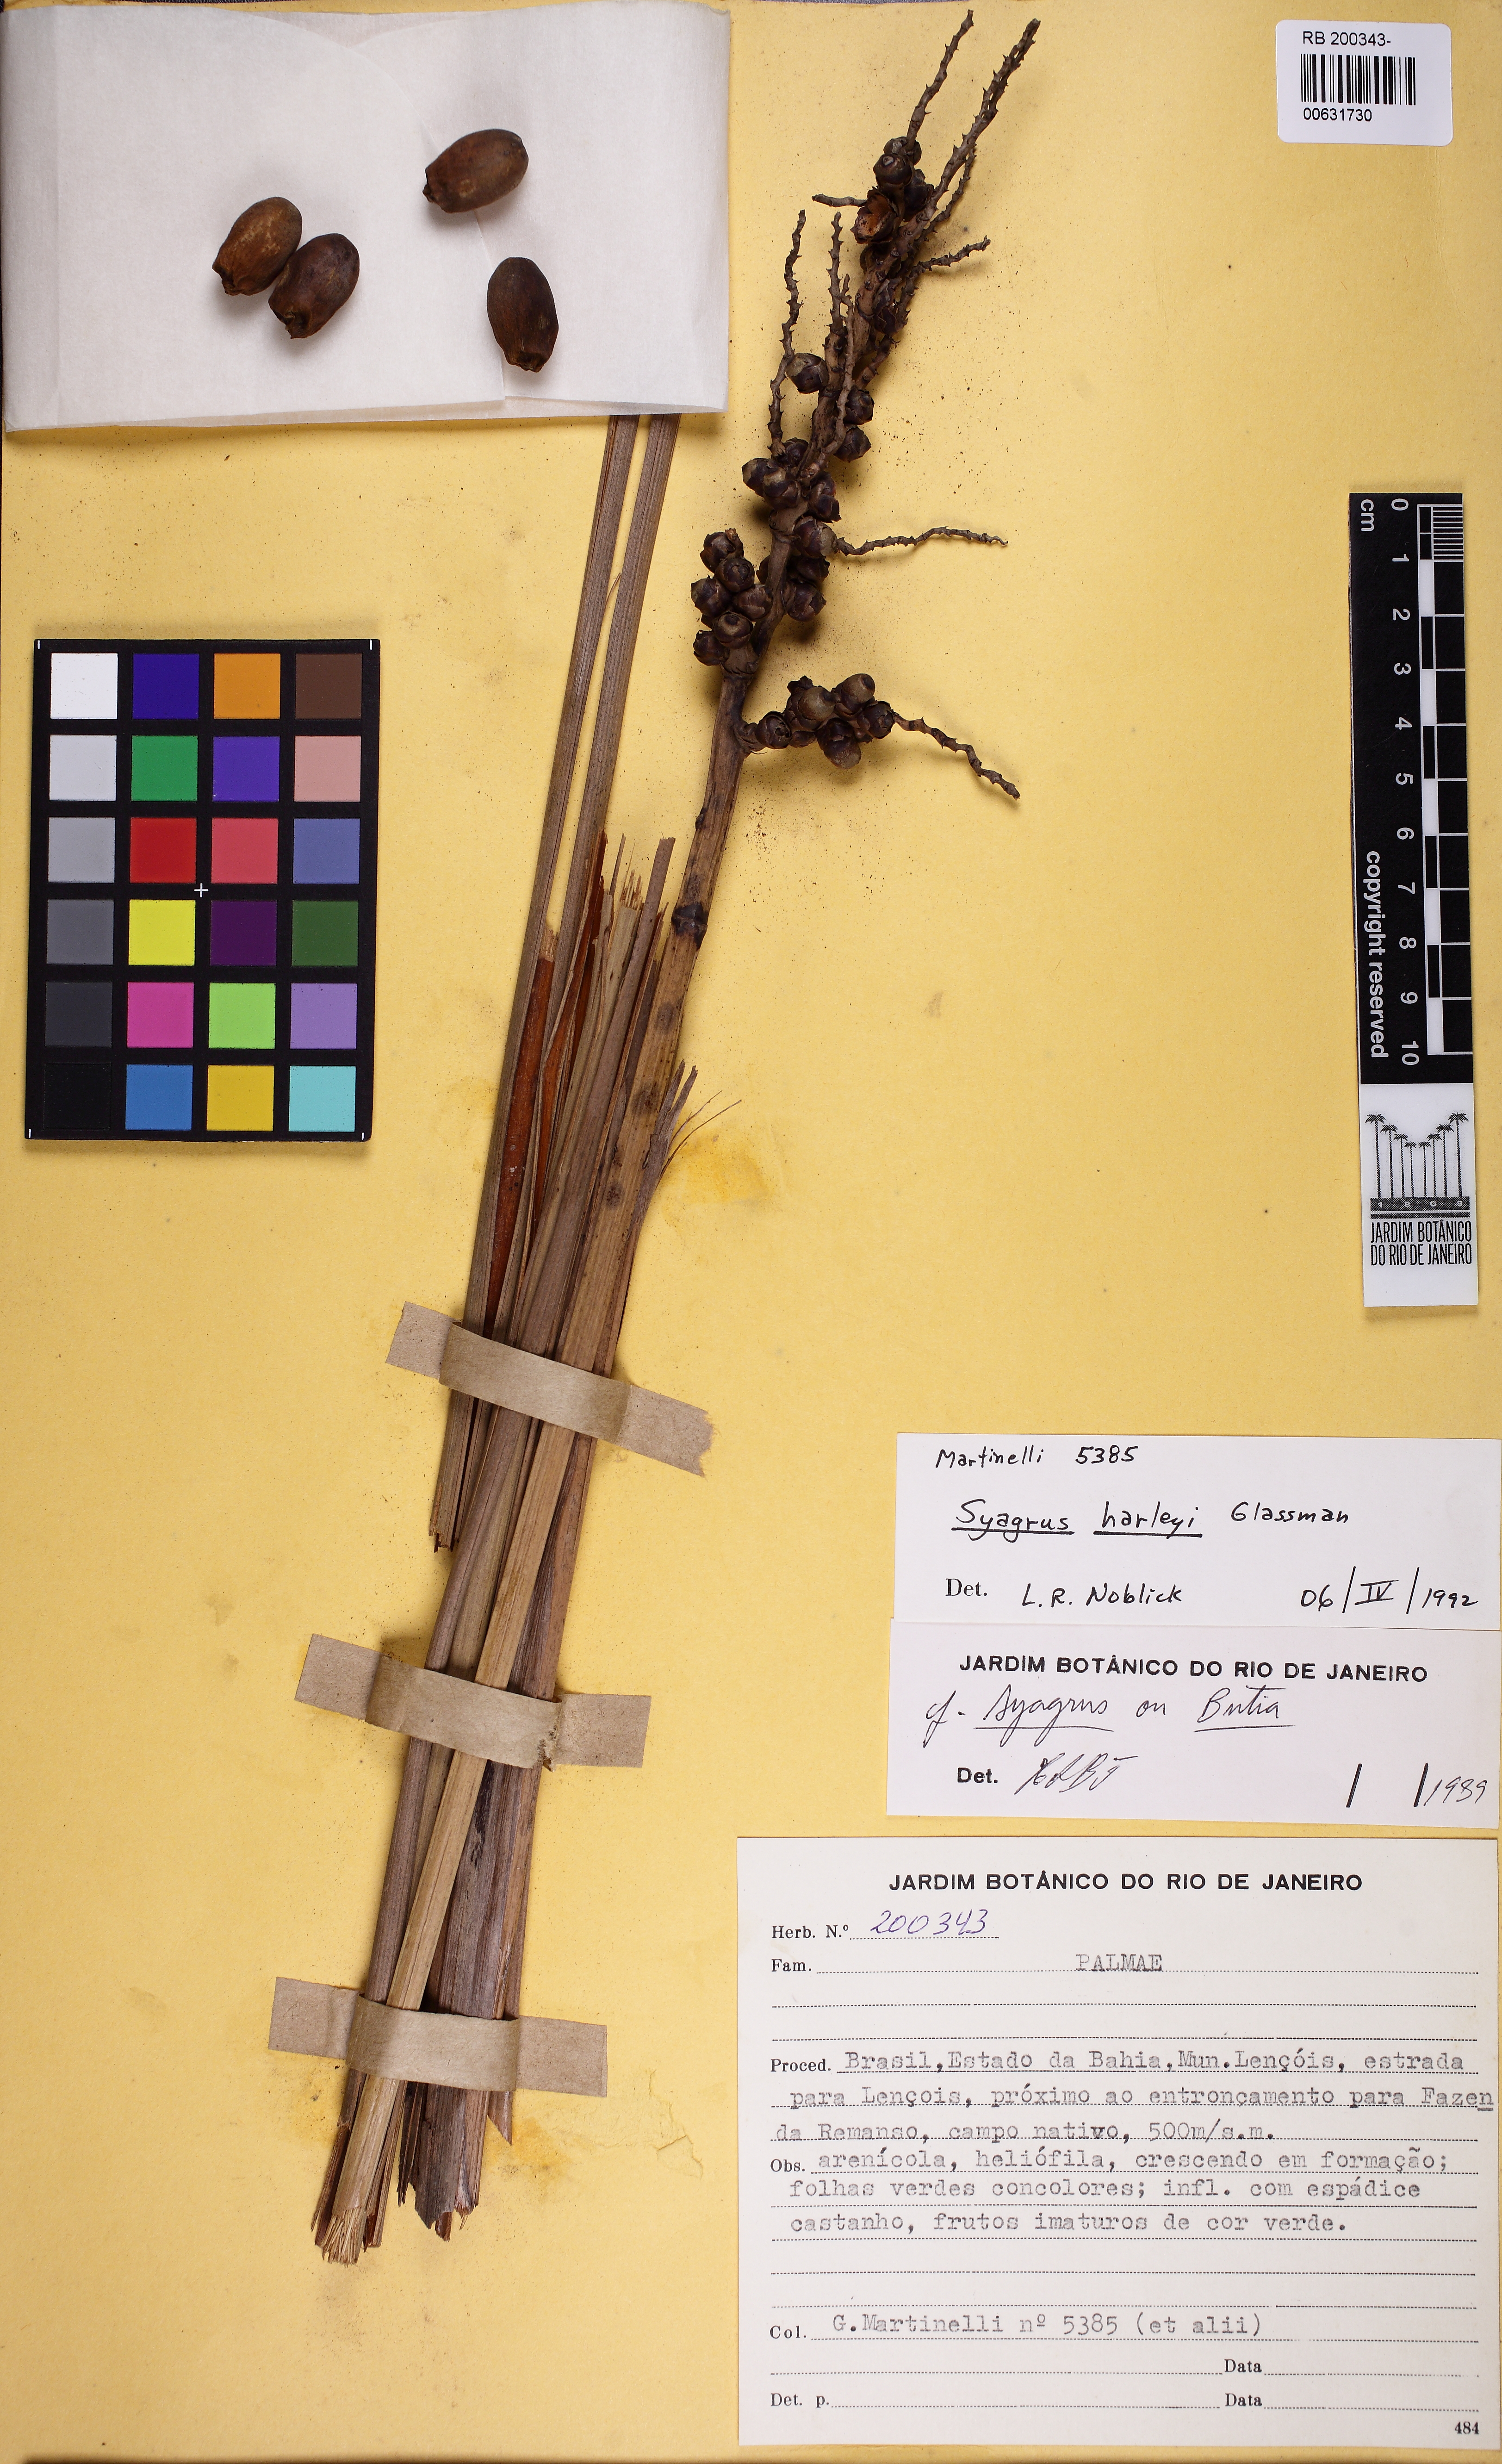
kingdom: Plantae
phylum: Tracheophyta
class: Liliopsida
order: Arecales
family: Arecaceae
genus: Syagrus
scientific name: Syagrus harleyi
